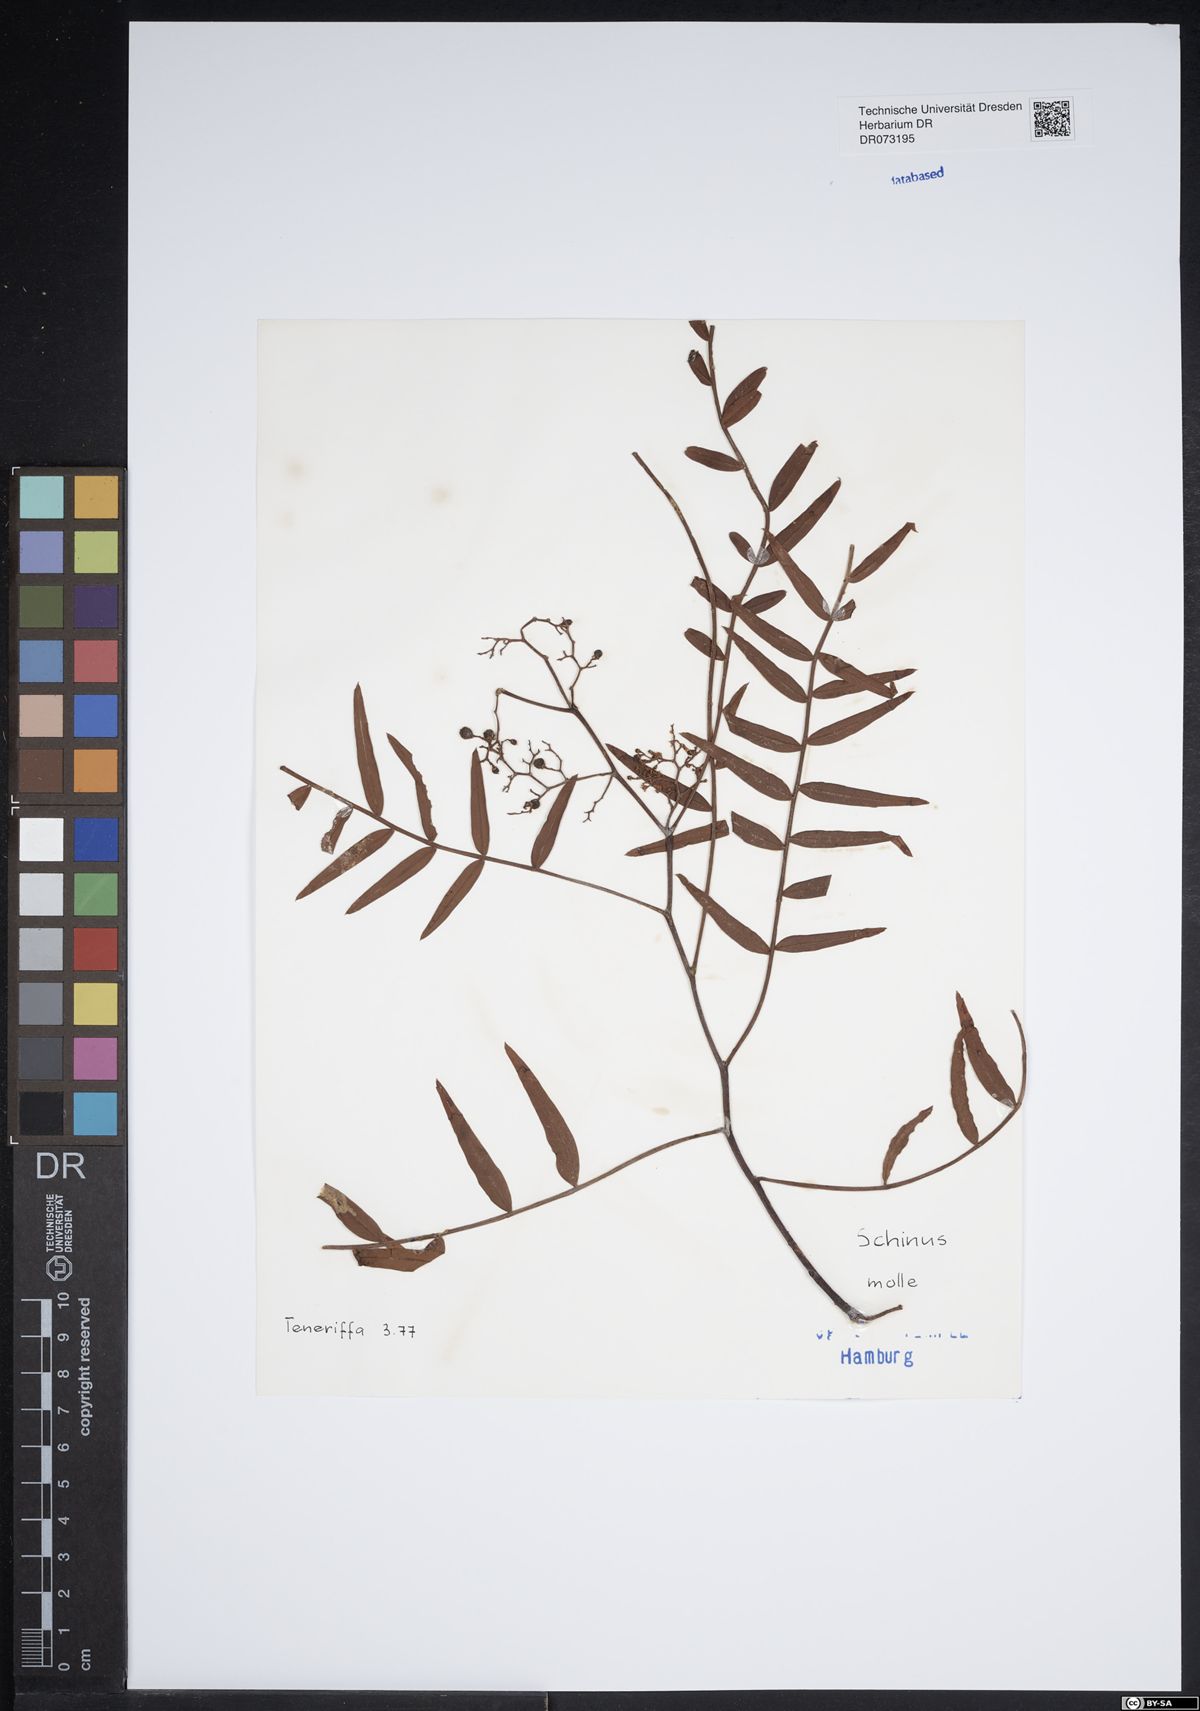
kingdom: Plantae
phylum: Tracheophyta
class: Magnoliopsida
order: Sapindales
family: Anacardiaceae
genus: Schinus
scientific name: Schinus molle
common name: Peruvian peppertree
